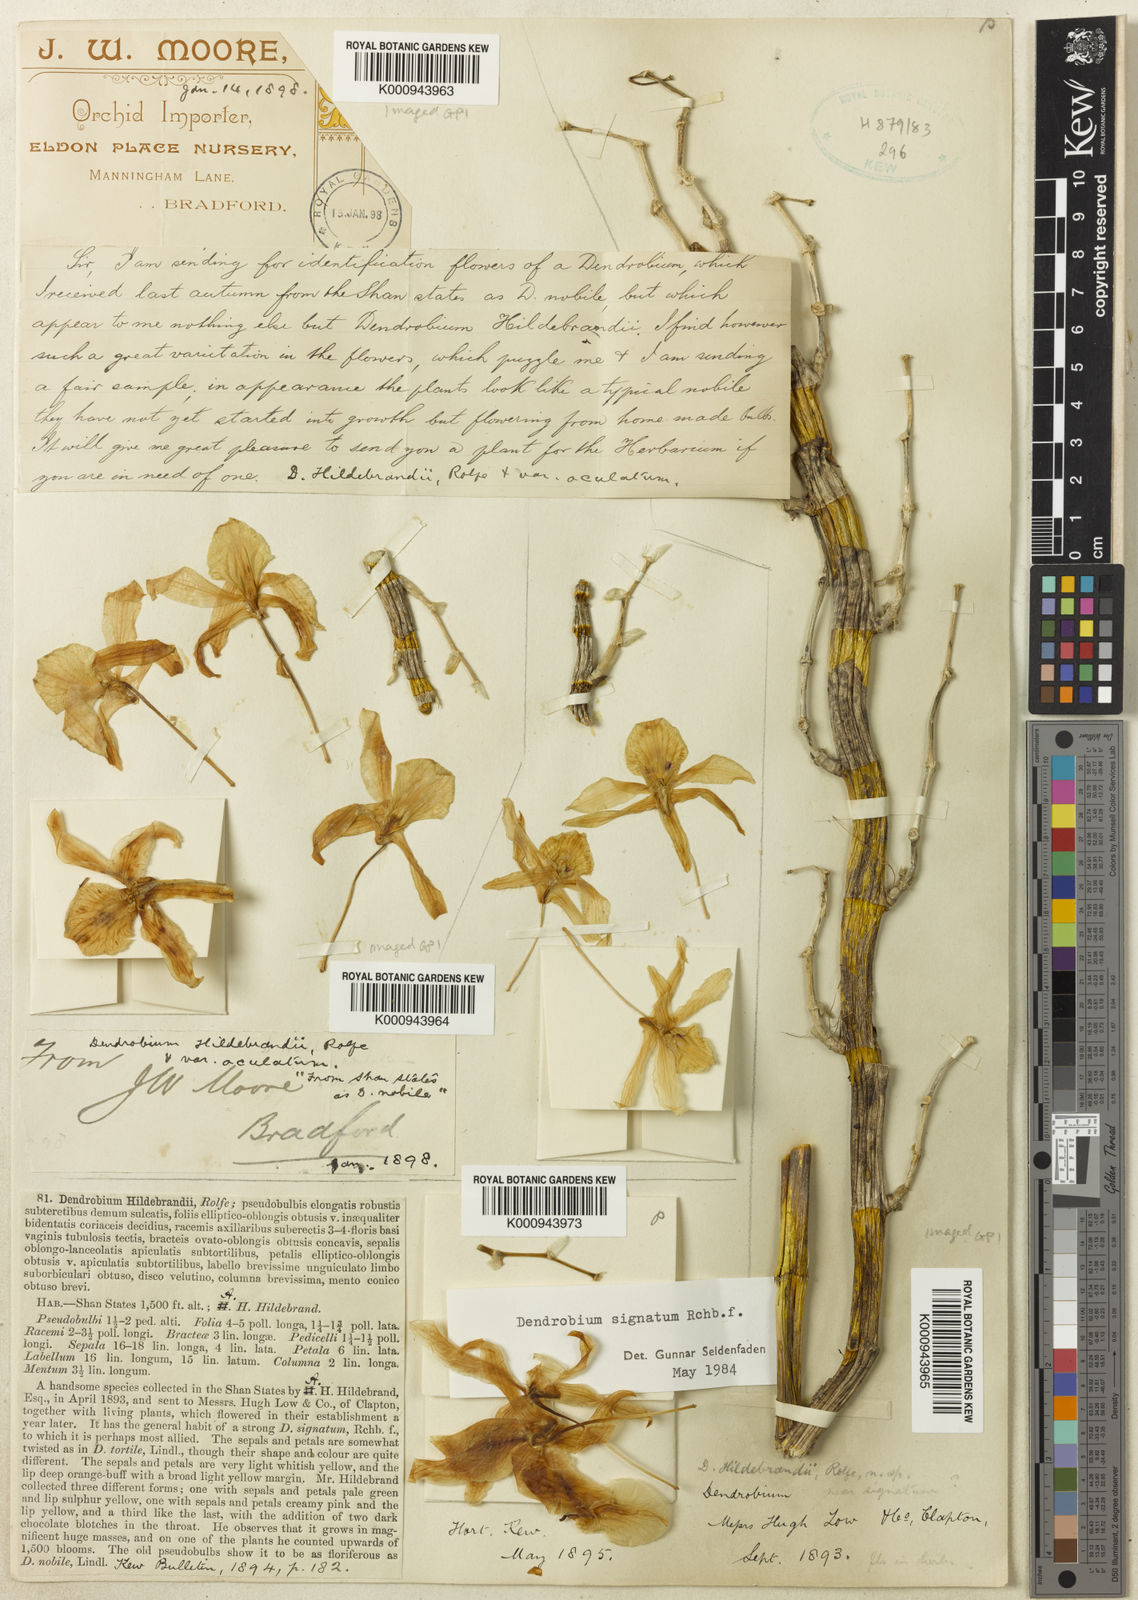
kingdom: Plantae
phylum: Tracheophyta
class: Liliopsida
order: Asparagales
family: Orchidaceae
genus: Dendrobium
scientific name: Dendrobium signatum
